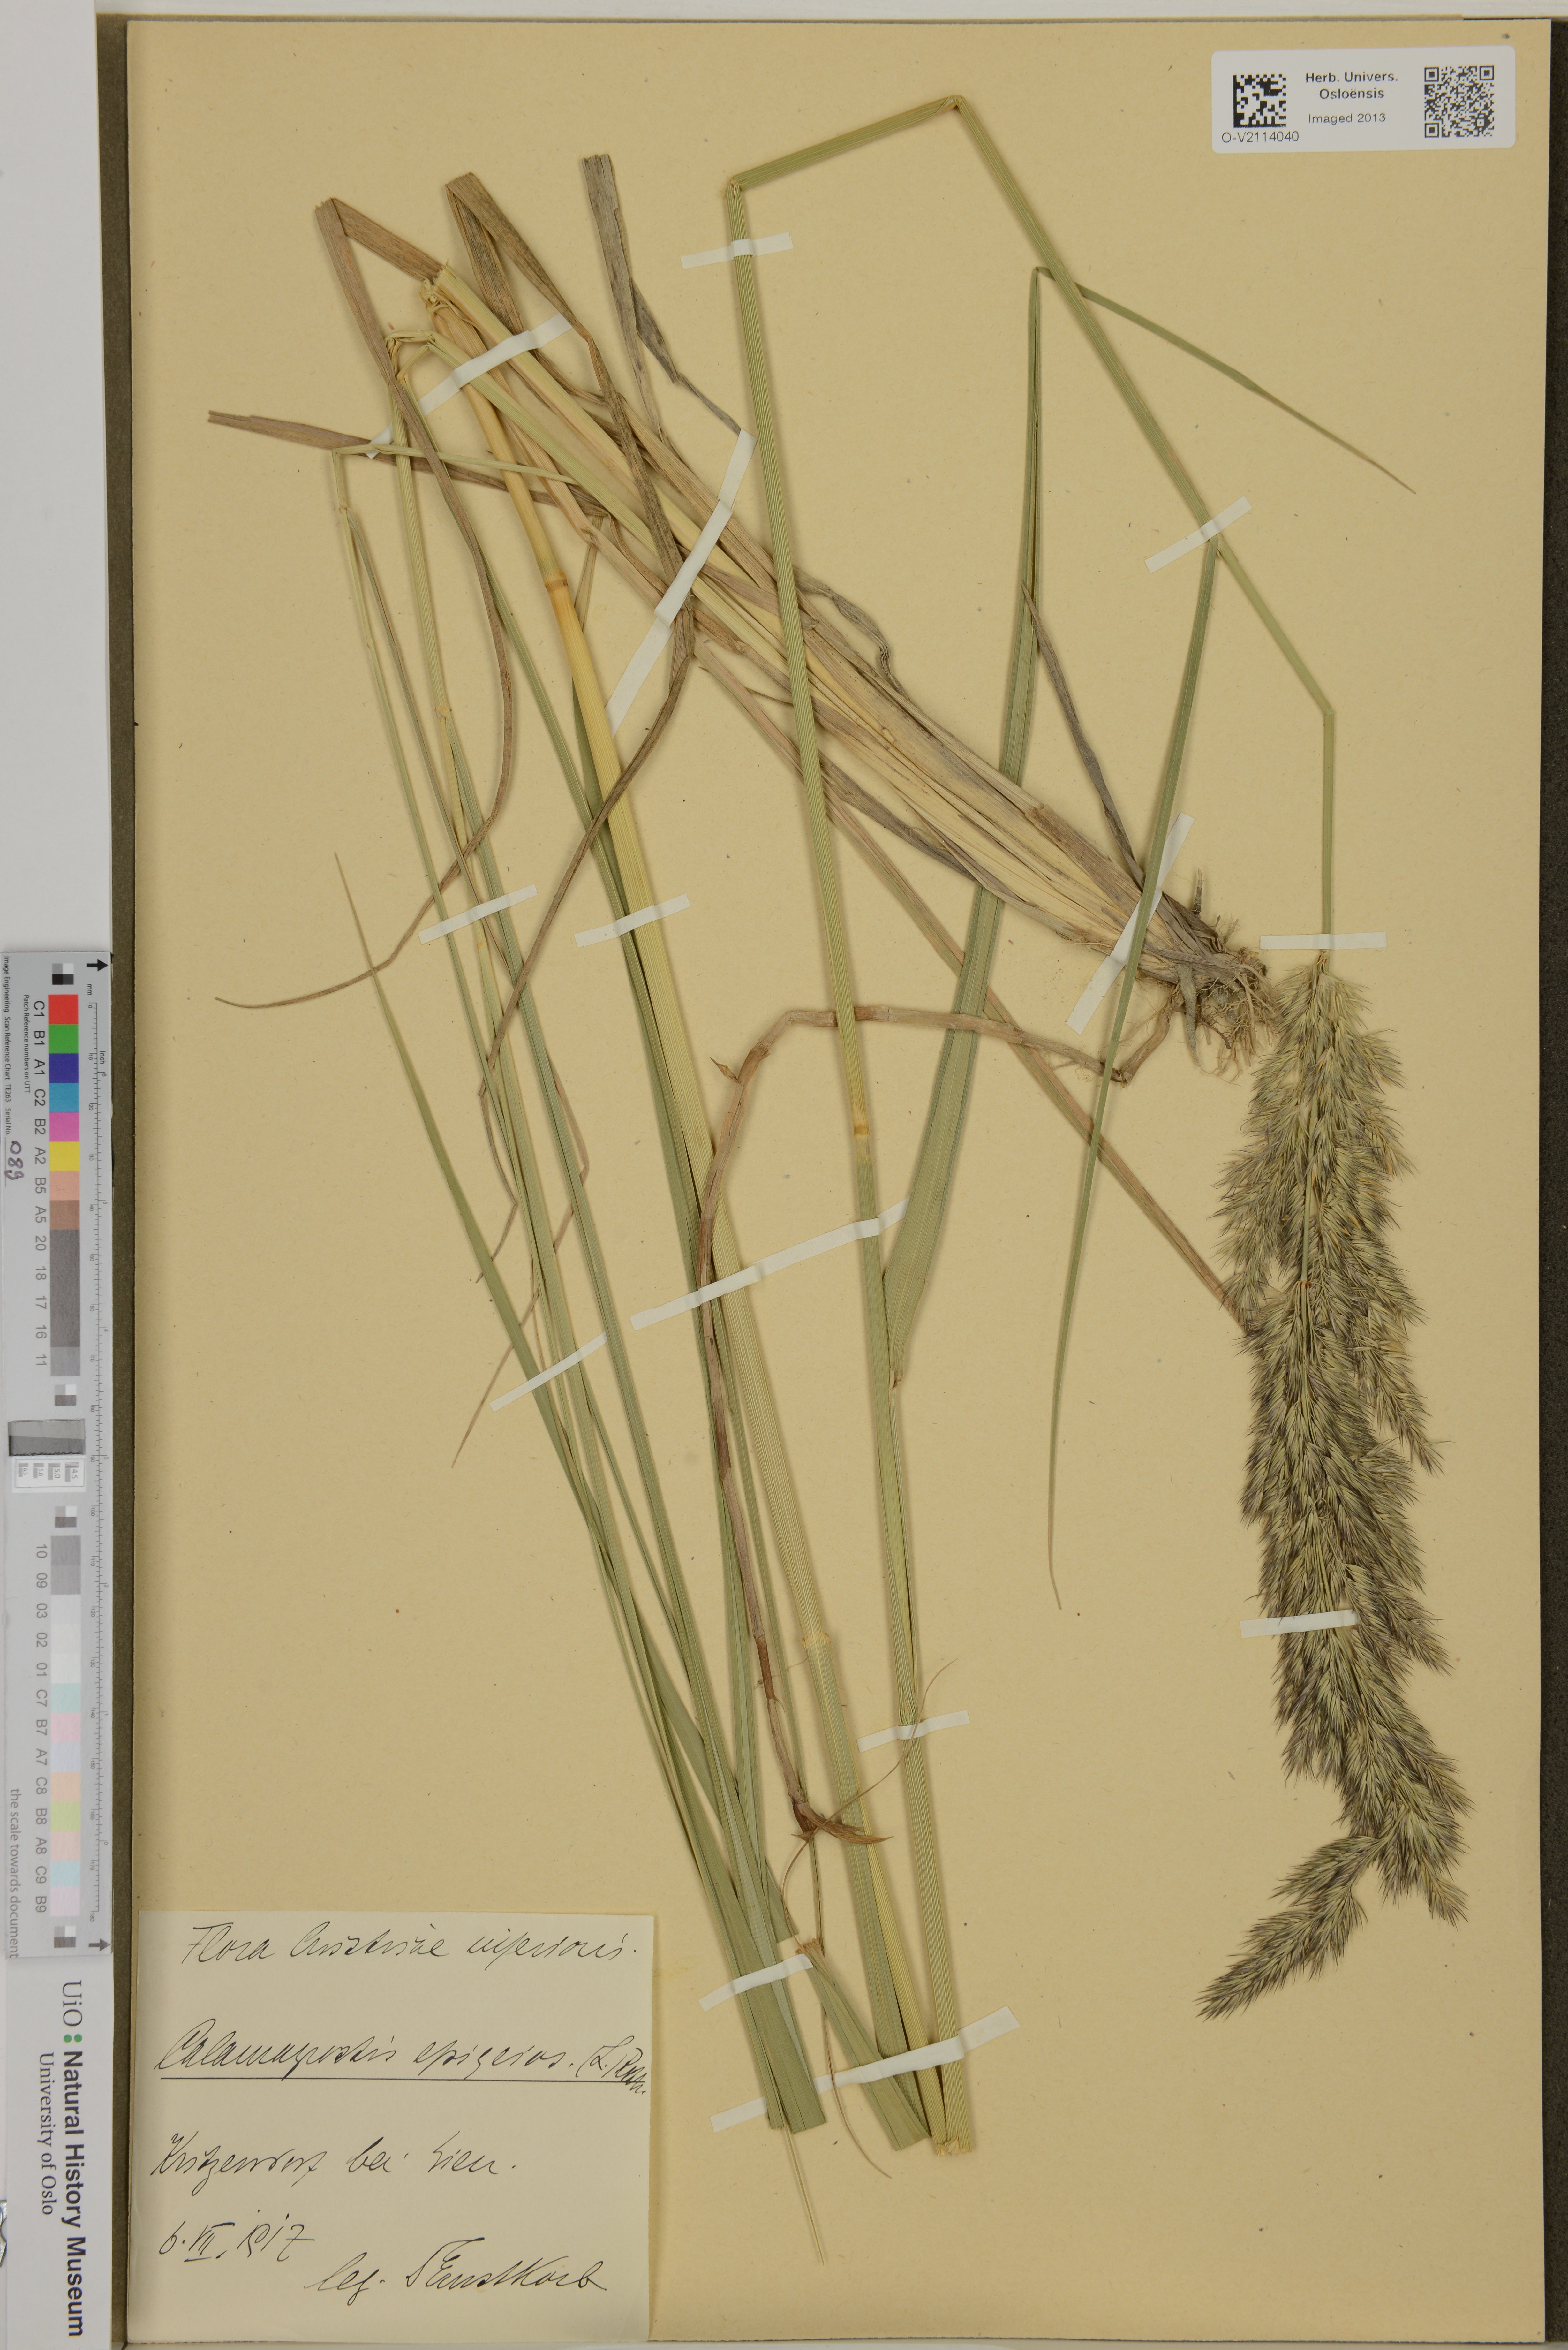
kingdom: Plantae
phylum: Tracheophyta
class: Liliopsida
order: Poales
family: Poaceae
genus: Calamagrostis
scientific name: Calamagrostis epigejos
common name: Wood small-reed
